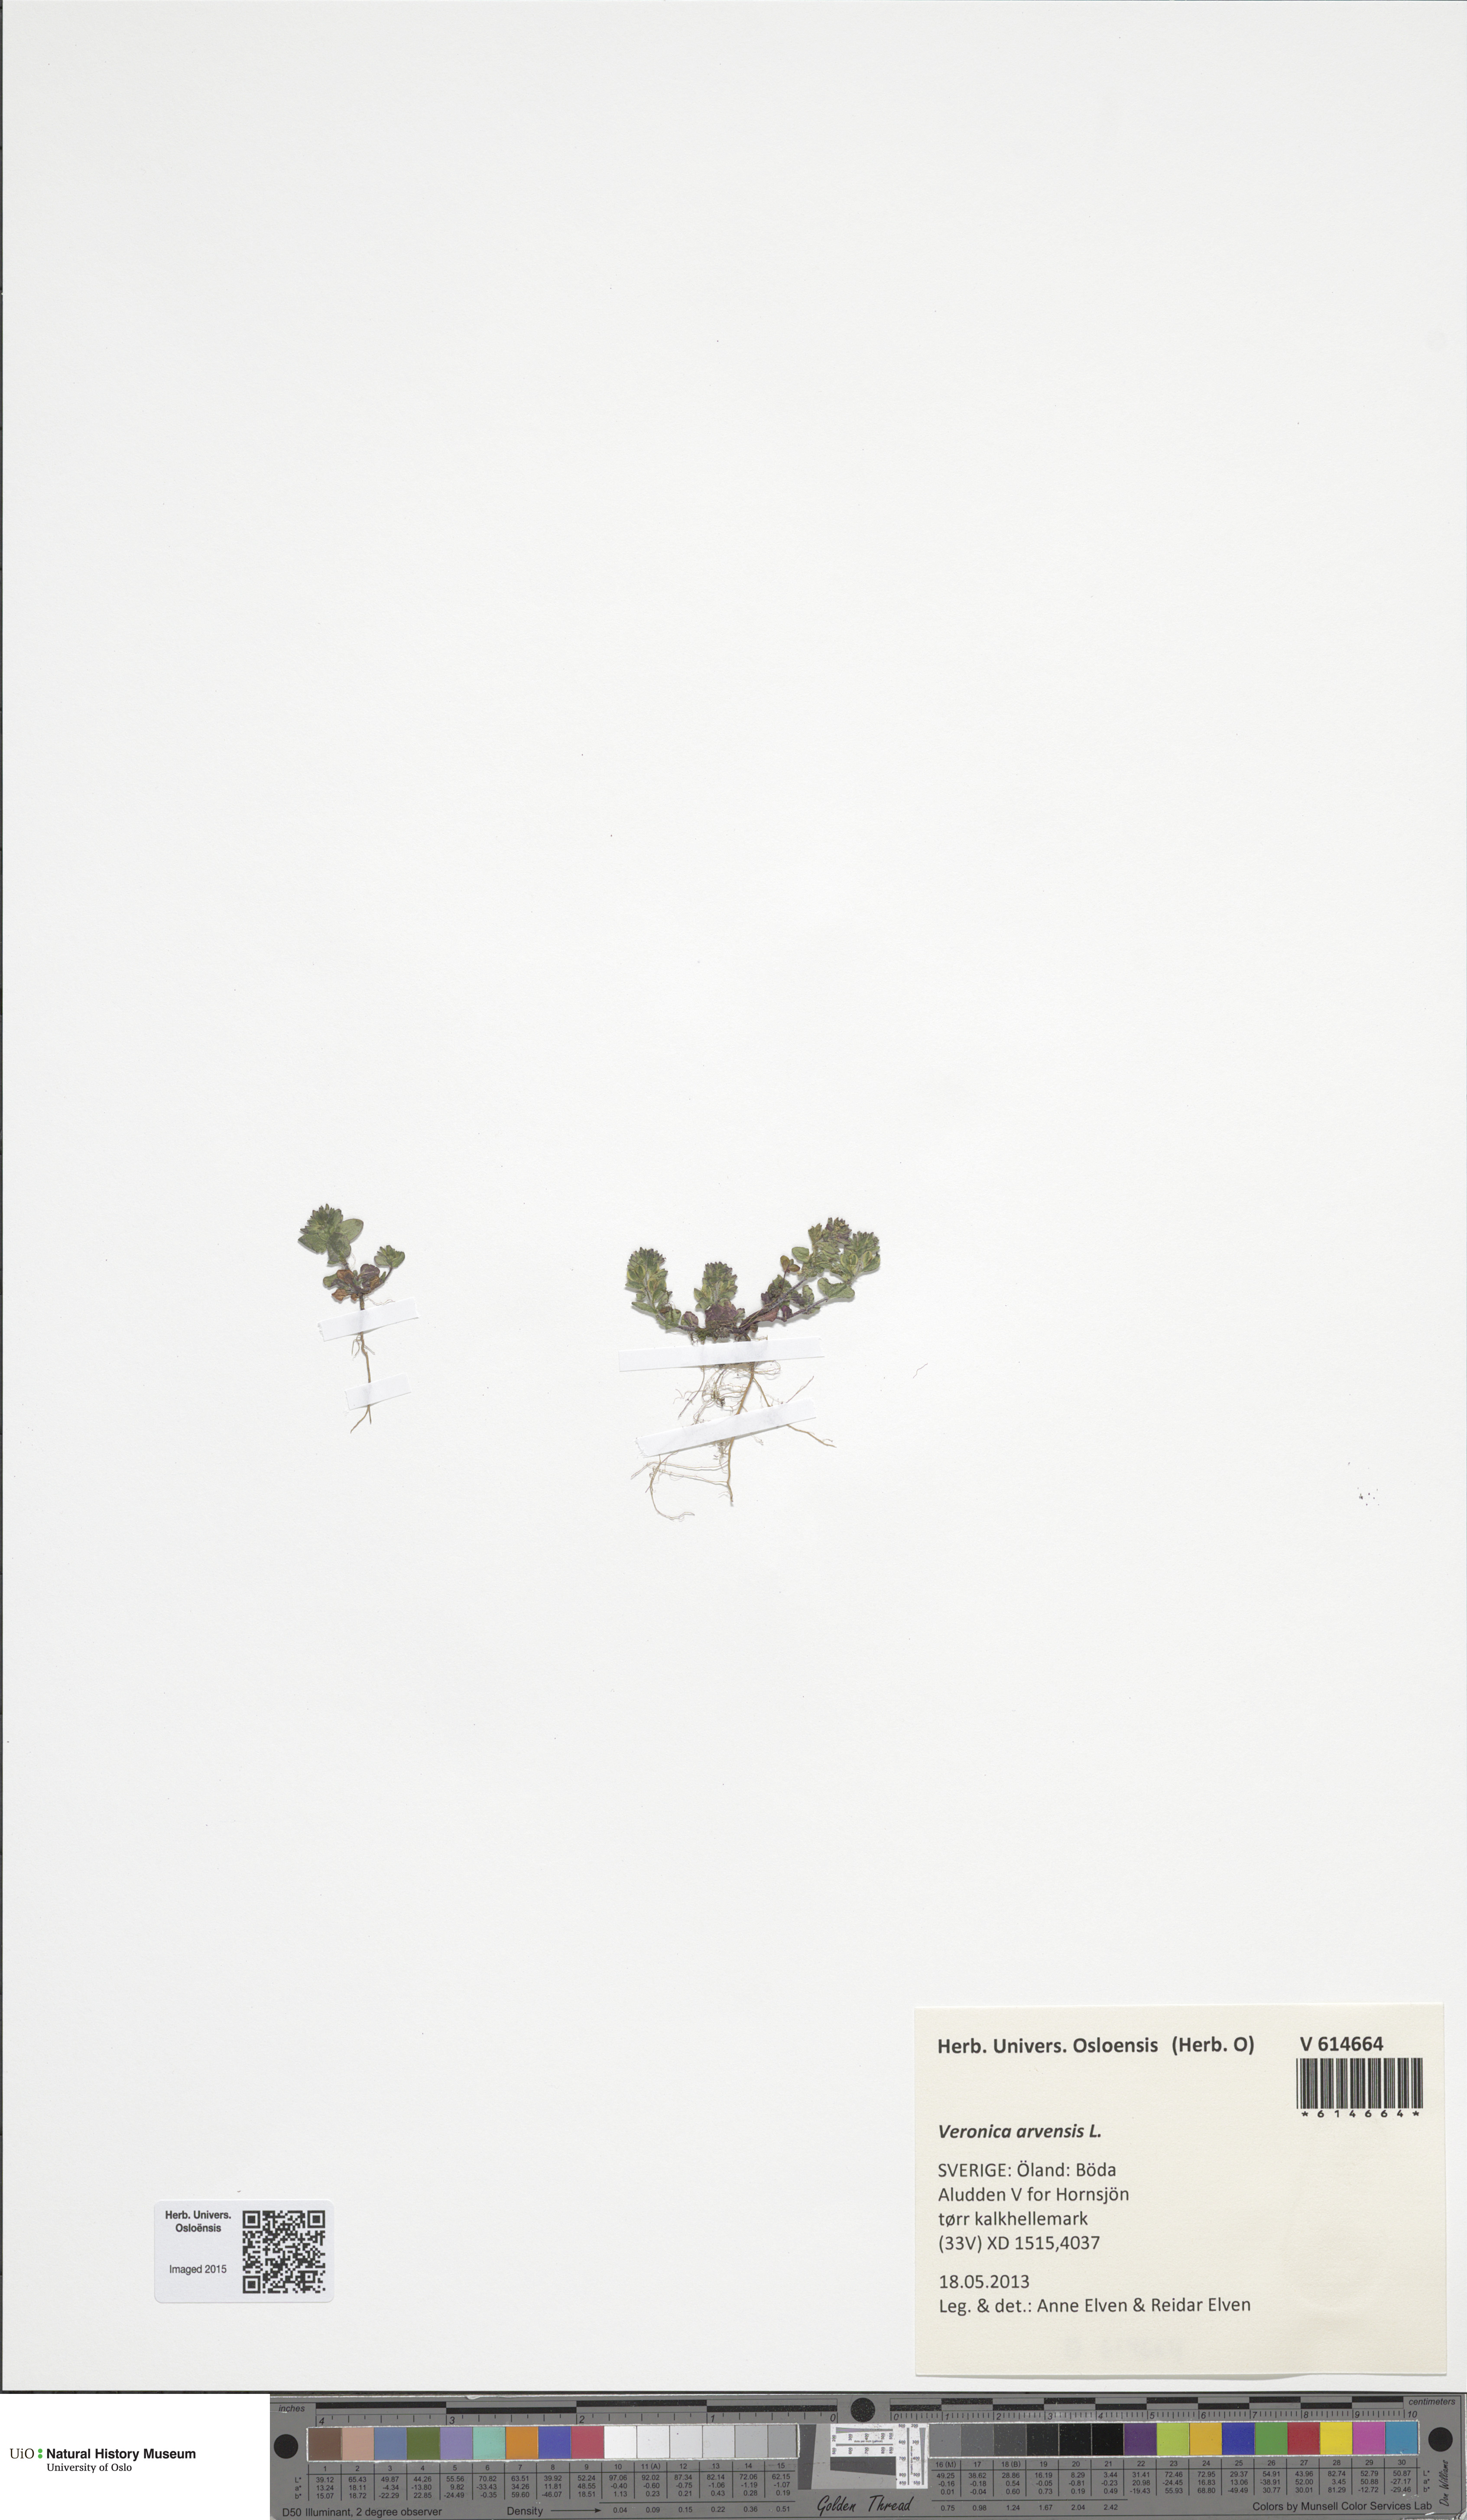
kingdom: Plantae
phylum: Tracheophyta
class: Magnoliopsida
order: Lamiales
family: Plantaginaceae
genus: Veronica
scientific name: Veronica arvensis
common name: Corn speedwell
